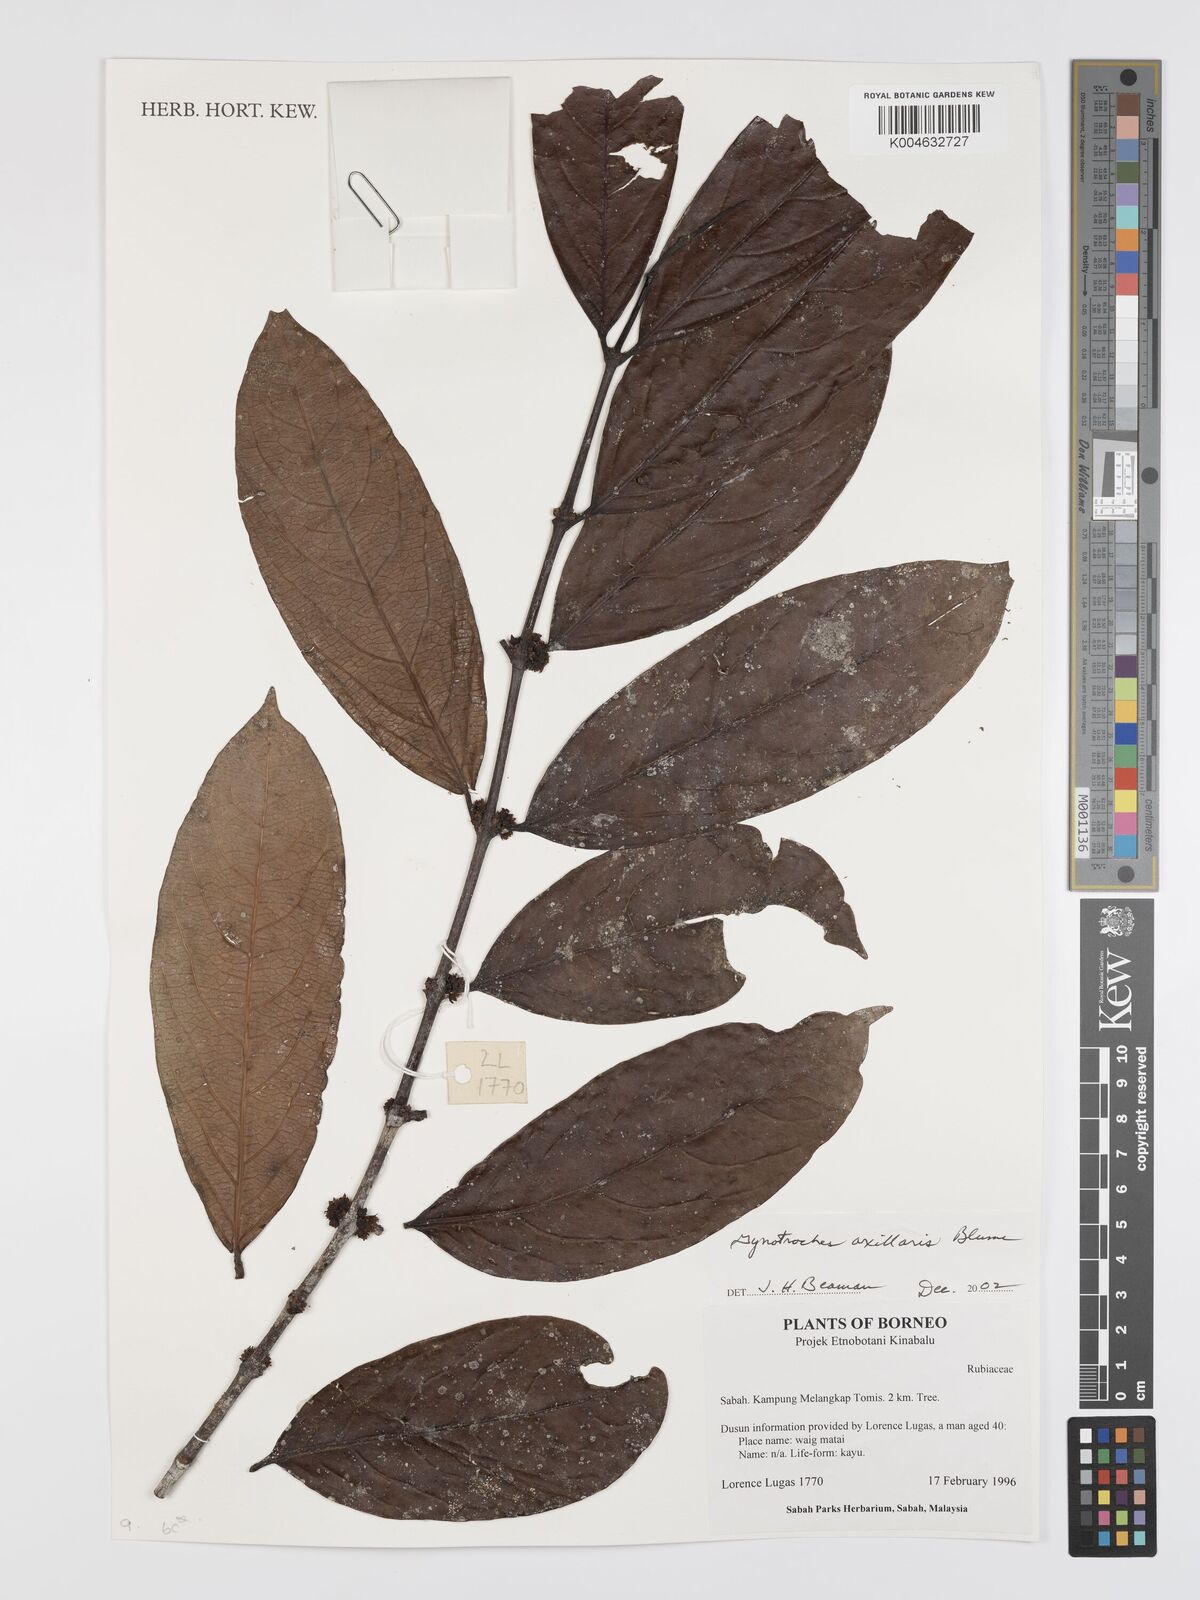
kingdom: Plantae
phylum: Tracheophyta
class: Magnoliopsida
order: Malpighiales
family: Rhizophoraceae
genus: Gynotroches
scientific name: Gynotroches axillaris
